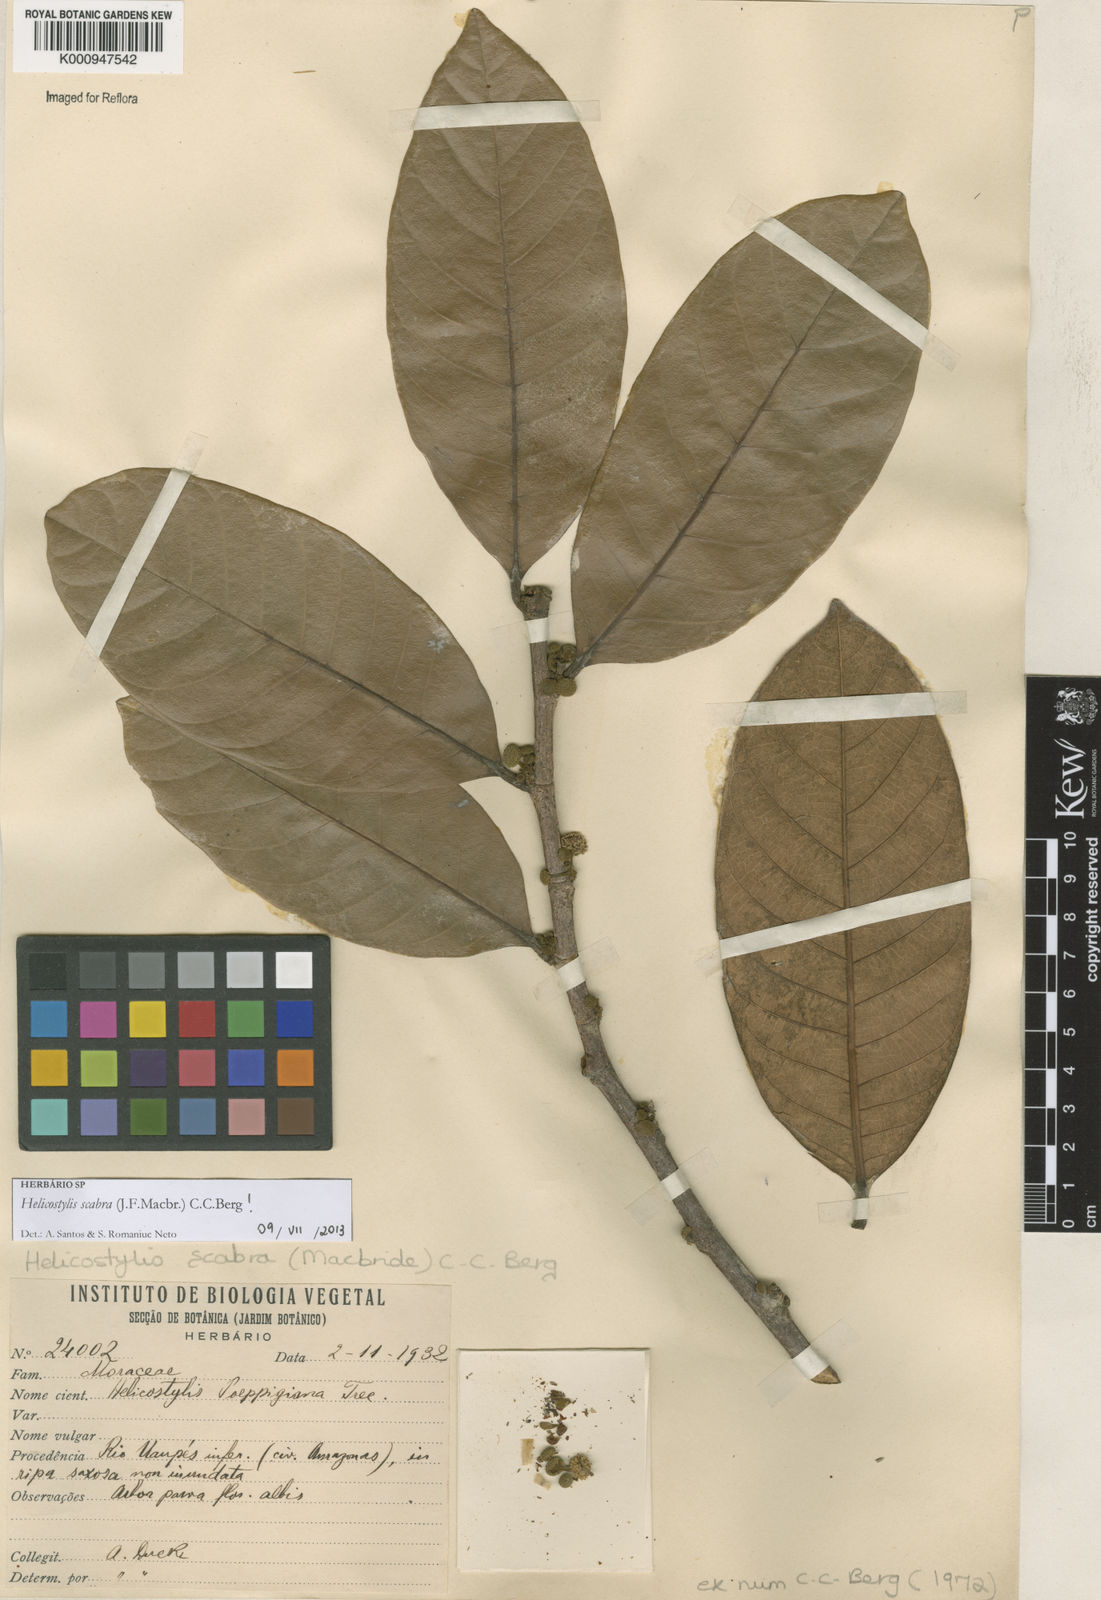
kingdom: Plantae
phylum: Tracheophyta
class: Magnoliopsida
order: Rosales
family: Moraceae
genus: Helicostylis
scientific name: Helicostylis scabra
